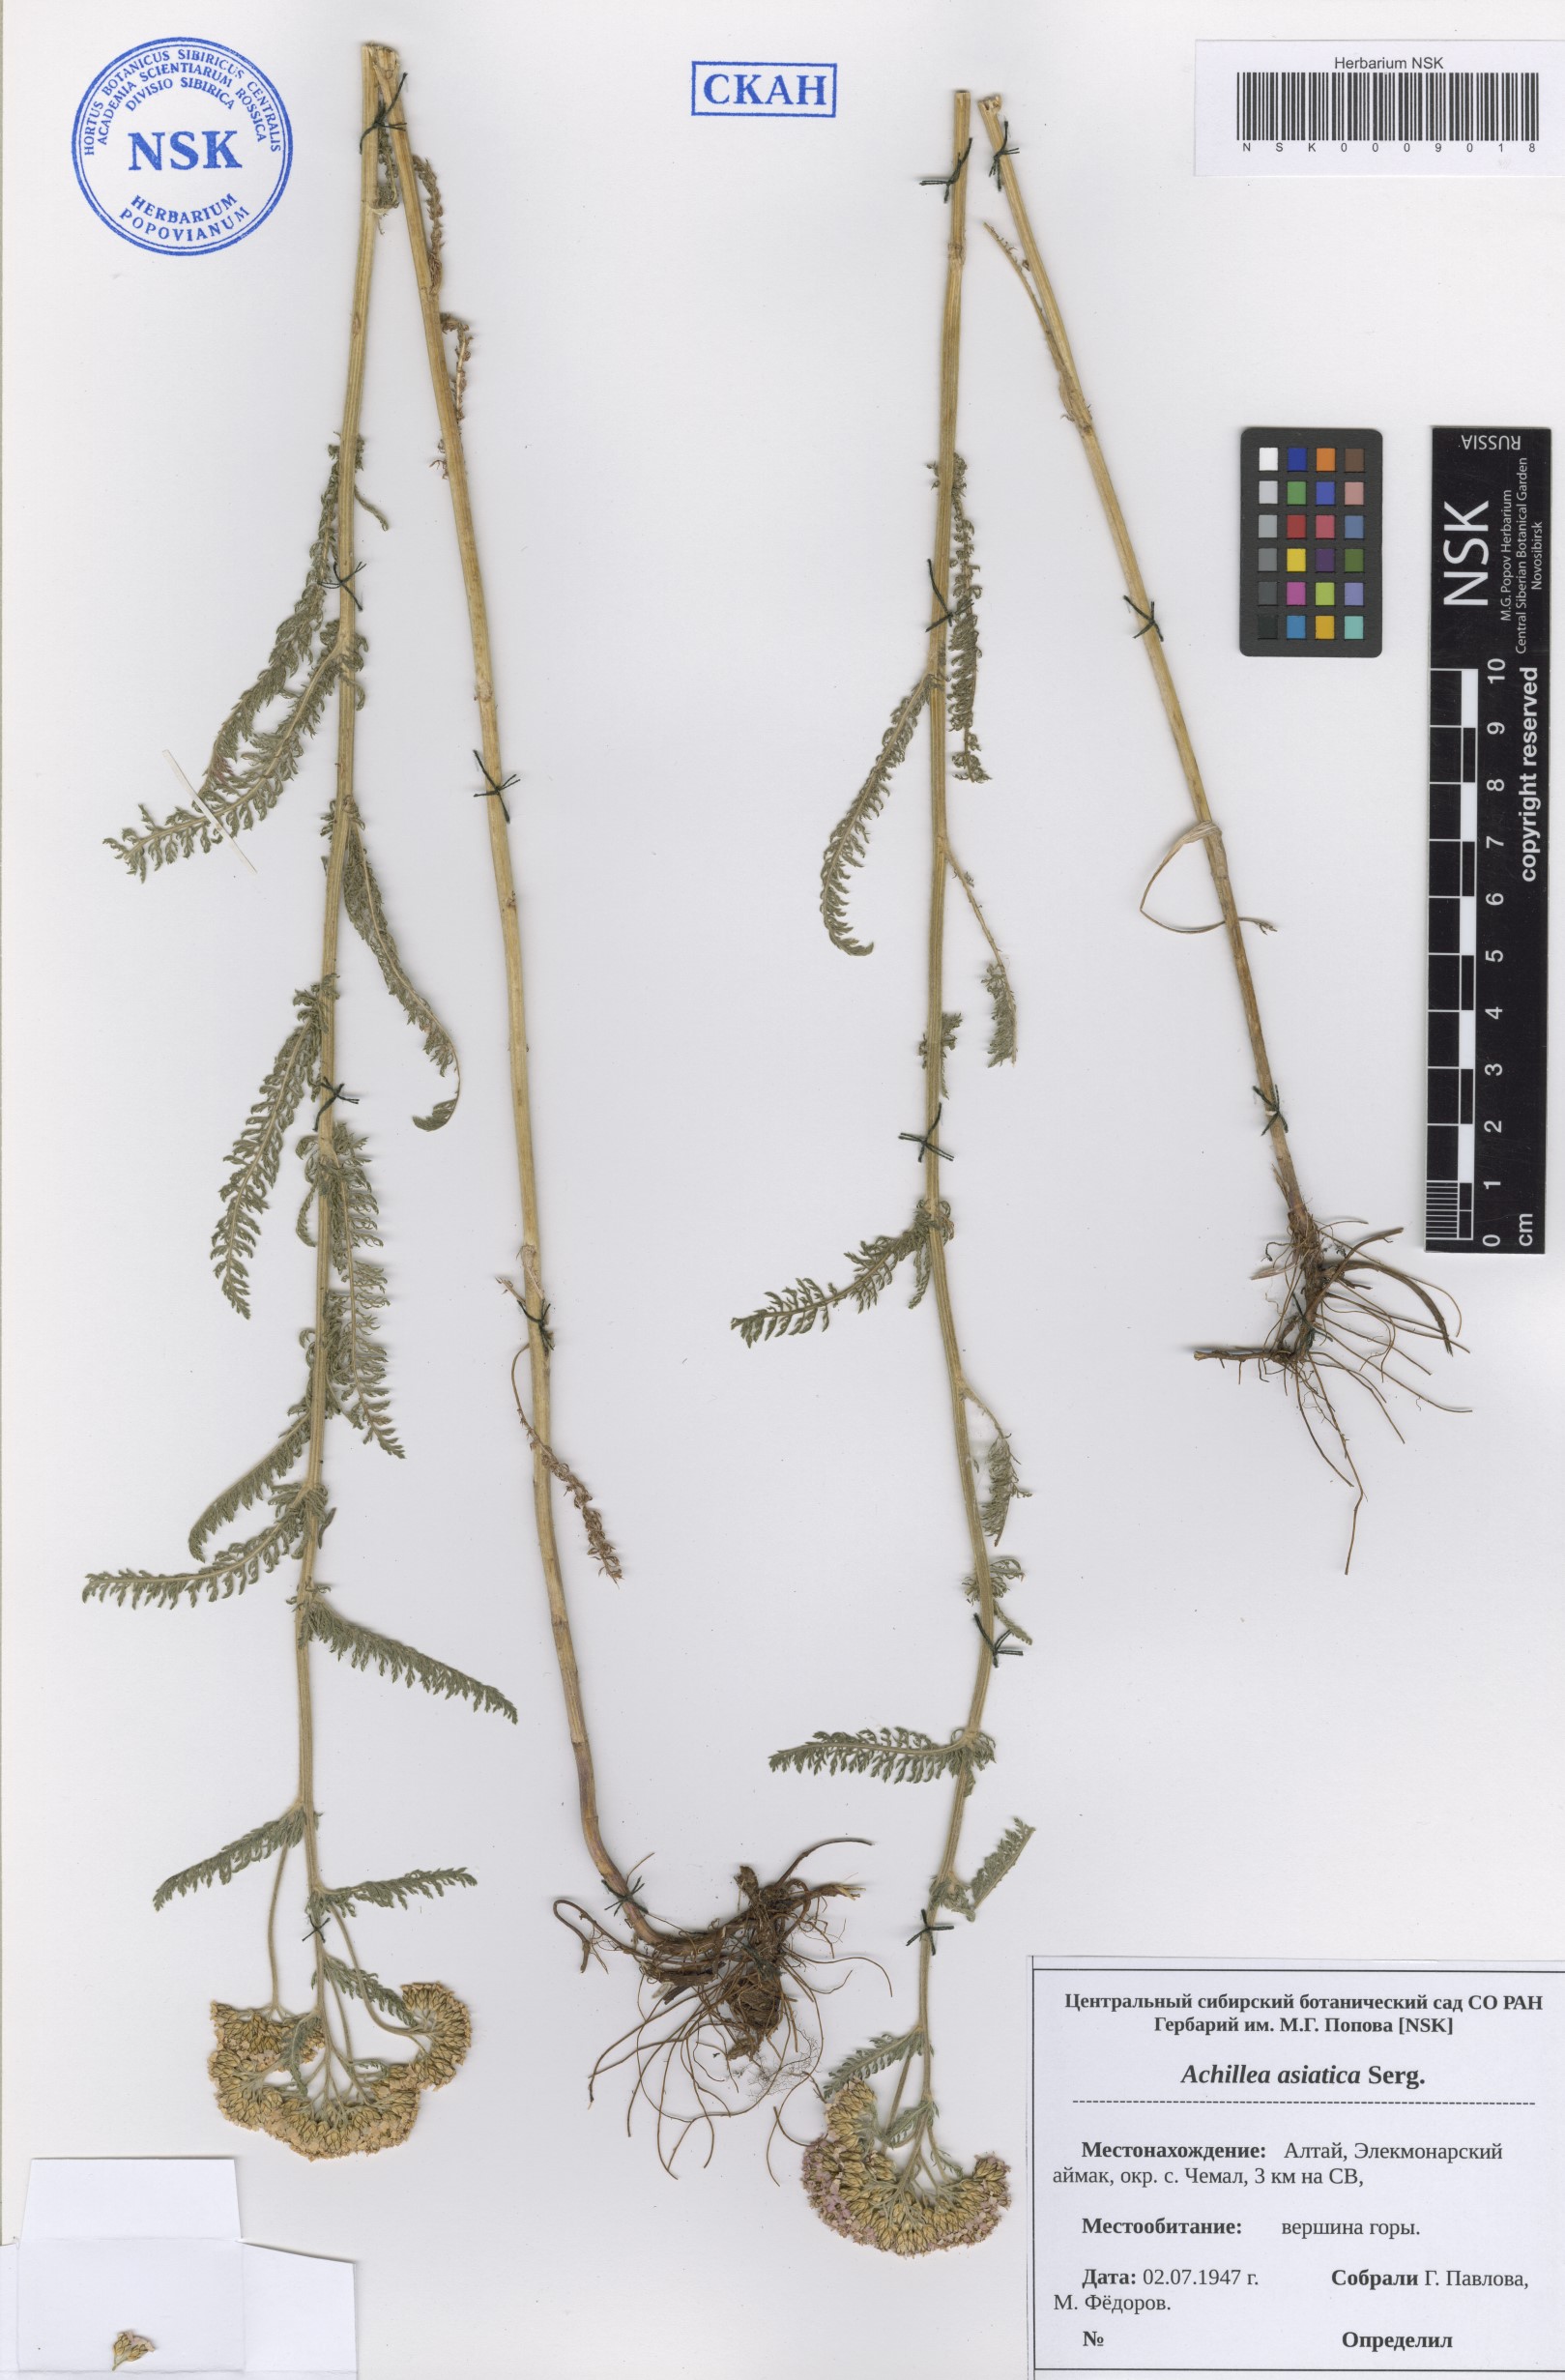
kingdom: Plantae
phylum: Tracheophyta
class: Magnoliopsida
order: Asterales
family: Asteraceae
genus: Achillea
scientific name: Achillea asiatica
